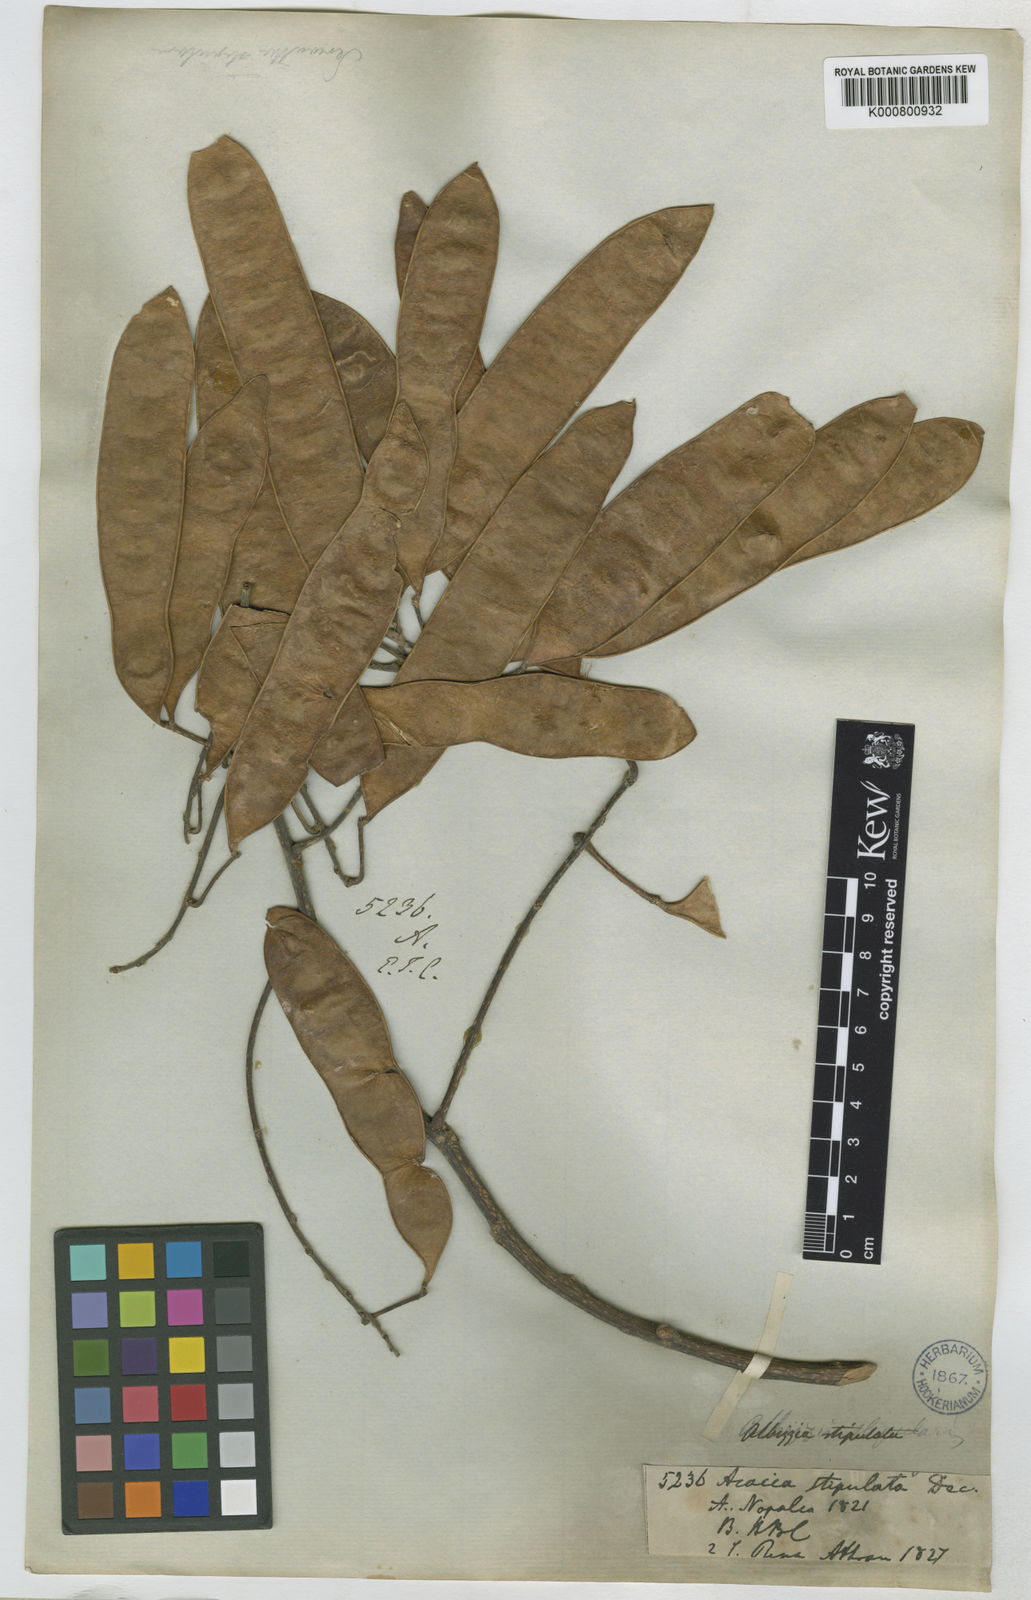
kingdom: Plantae
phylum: Tracheophyta
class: Magnoliopsida
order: Fabales
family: Fabaceae
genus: Albizia
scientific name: Albizia chinensis
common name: Chinese albizia
